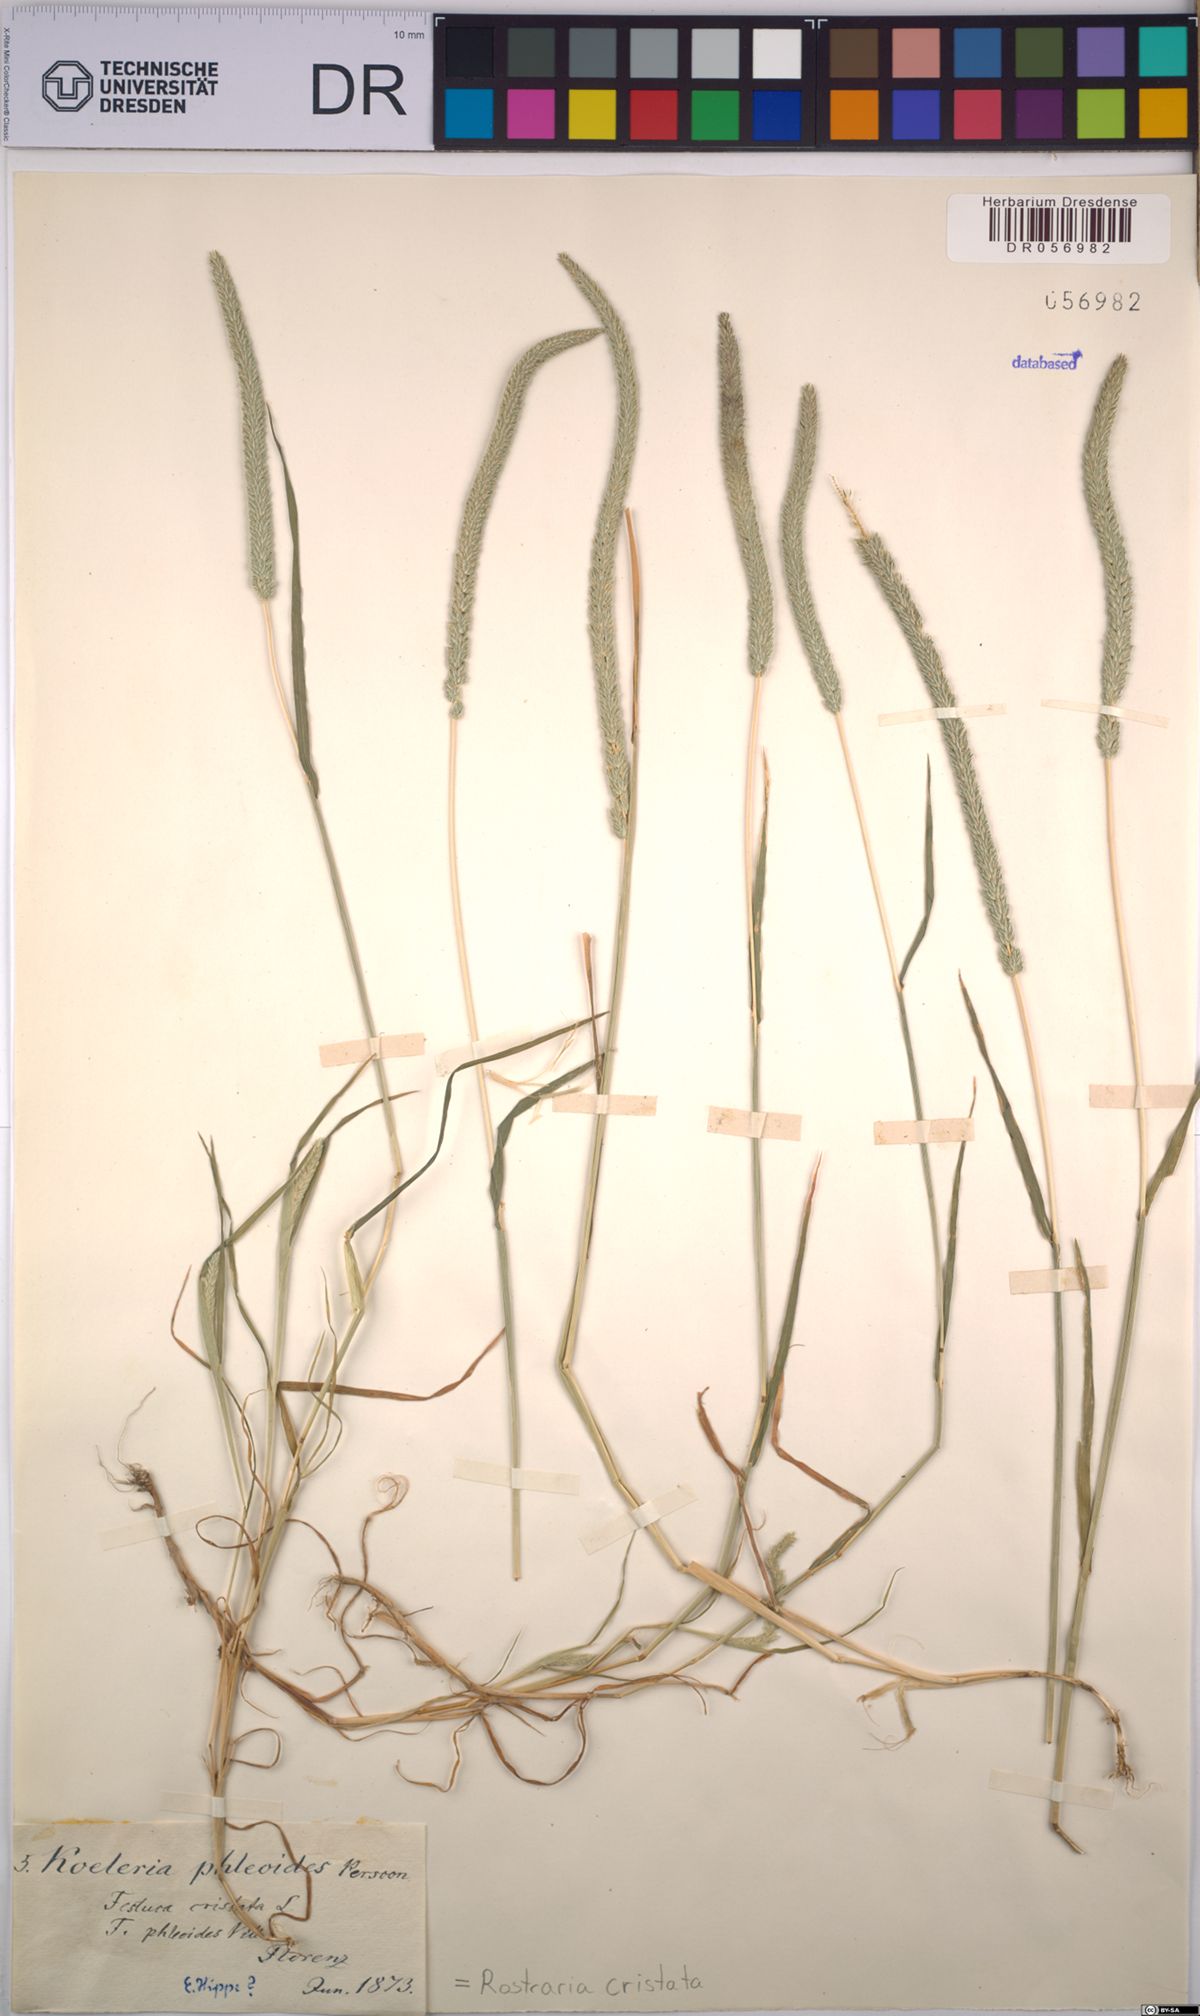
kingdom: Plantae
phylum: Tracheophyta
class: Liliopsida
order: Poales
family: Poaceae
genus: Rostraria
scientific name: Rostraria cristata
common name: Mediterranean hair-grass
